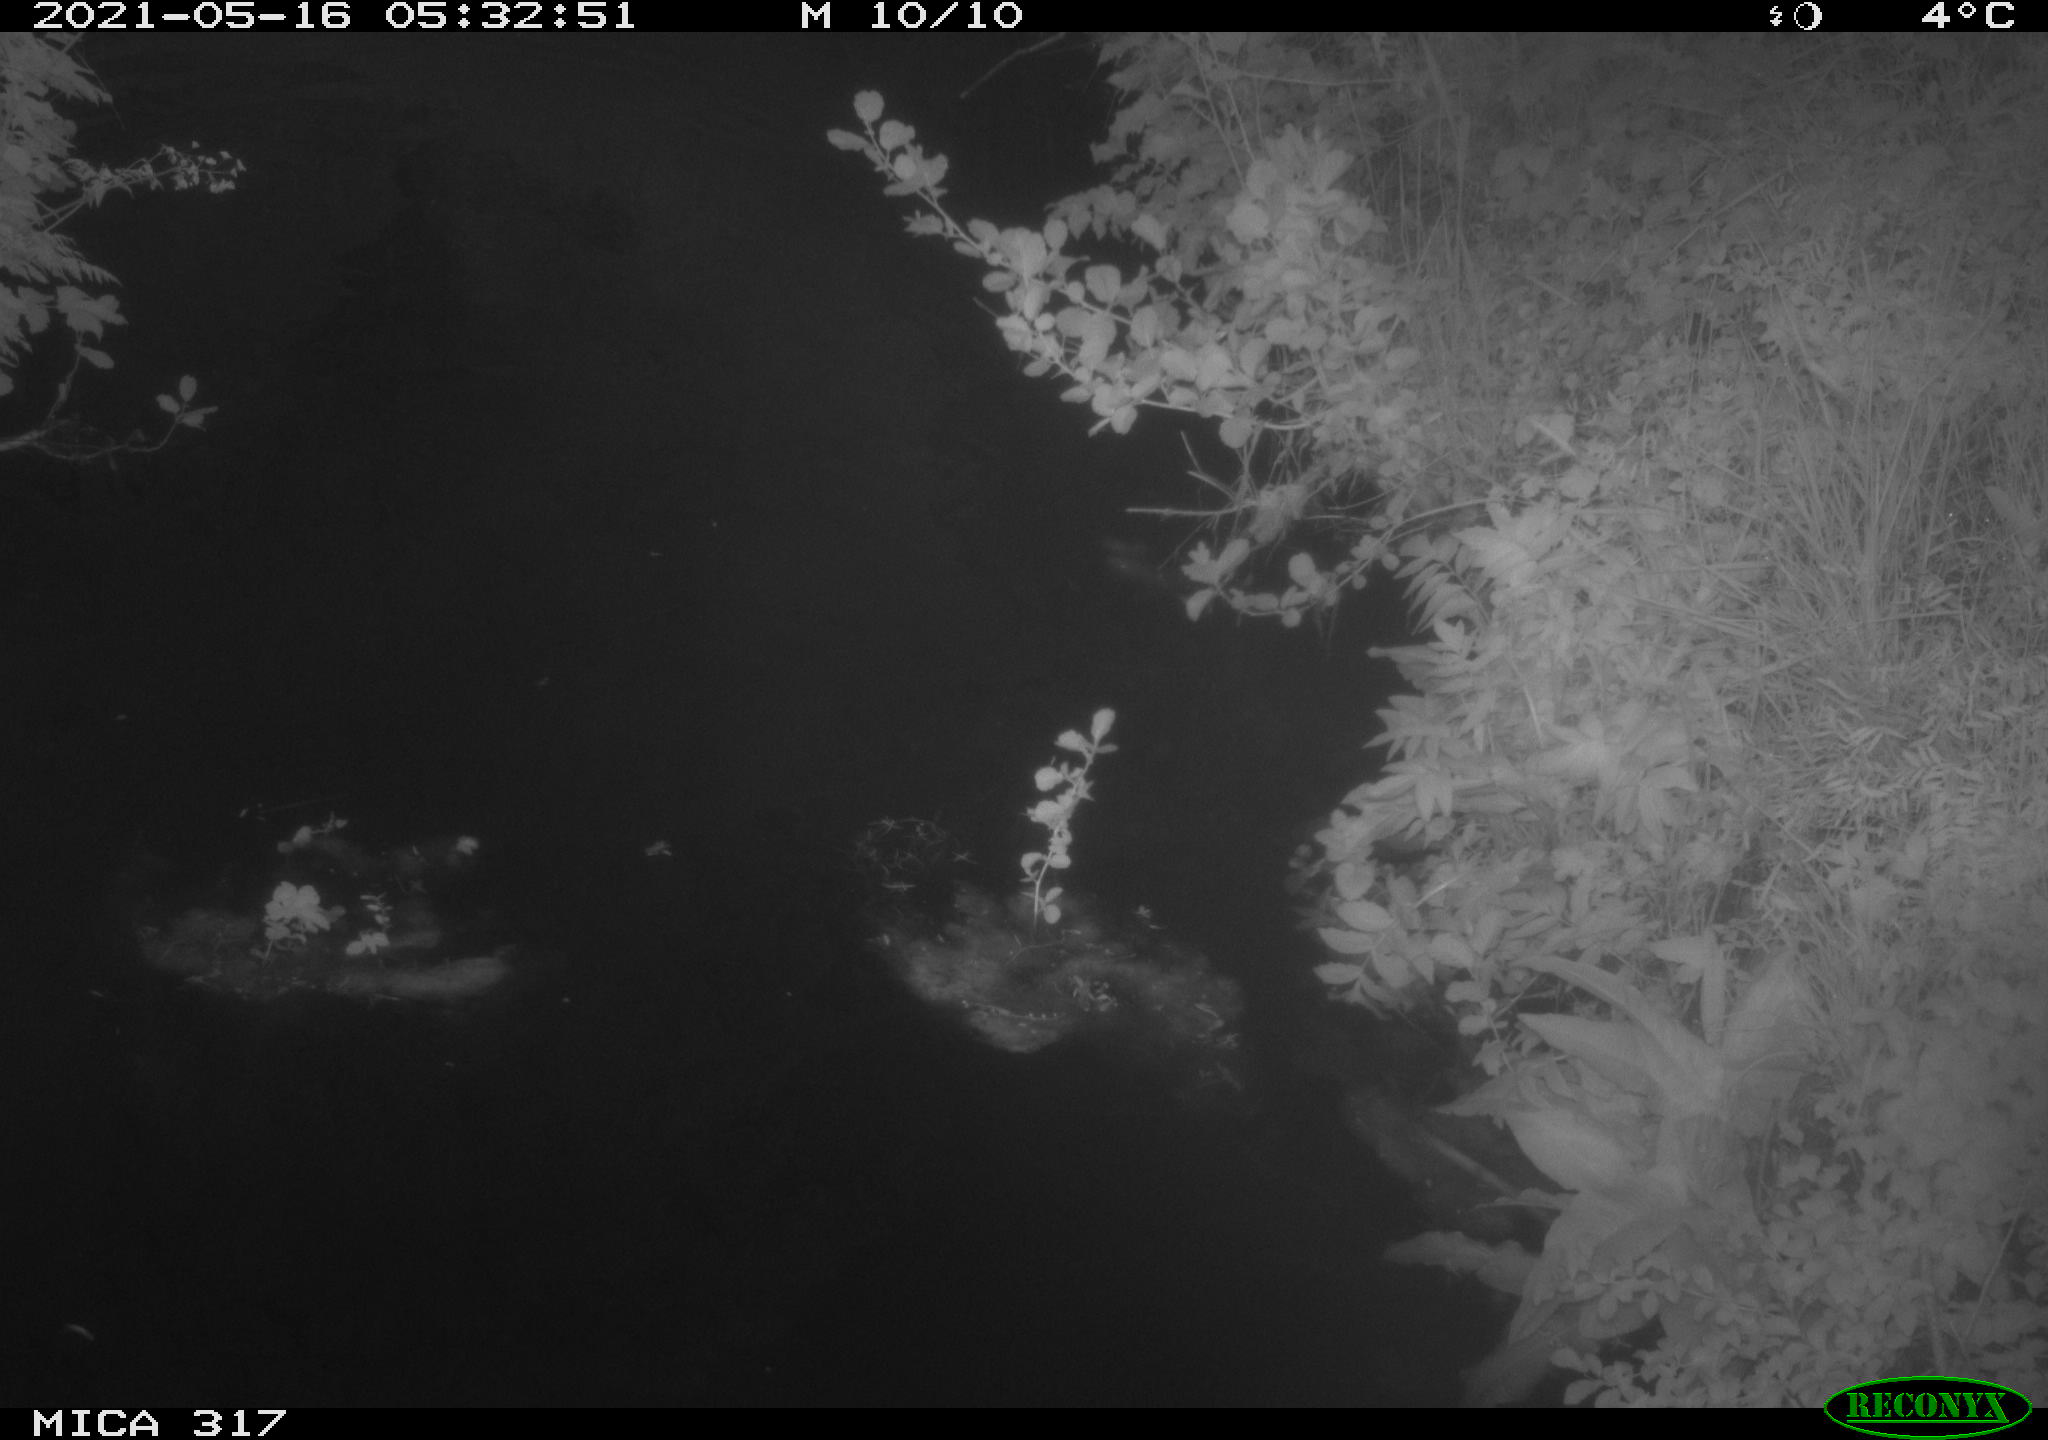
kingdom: Animalia
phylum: Chordata
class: Aves
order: Anseriformes
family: Anatidae
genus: Anas
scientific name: Anas
